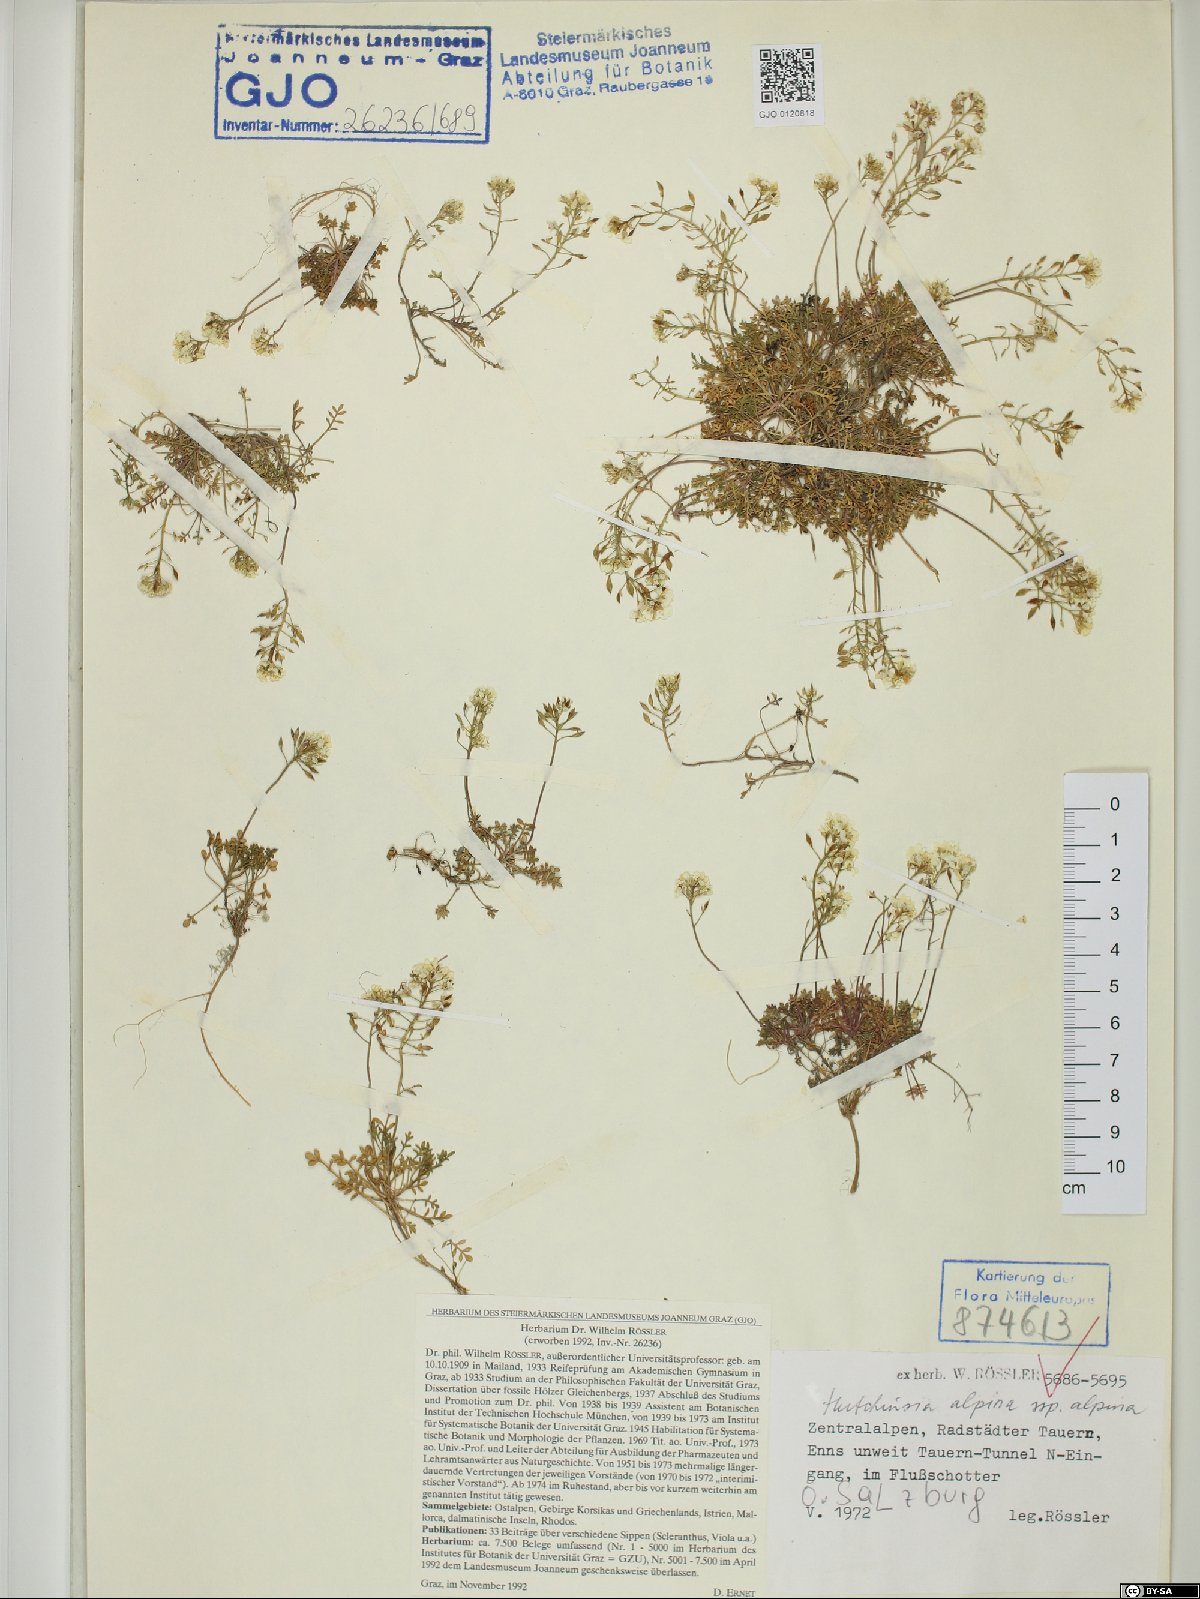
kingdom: Plantae
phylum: Tracheophyta
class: Magnoliopsida
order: Brassicales
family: Brassicaceae
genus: Hornungia
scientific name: Hornungia alpina
